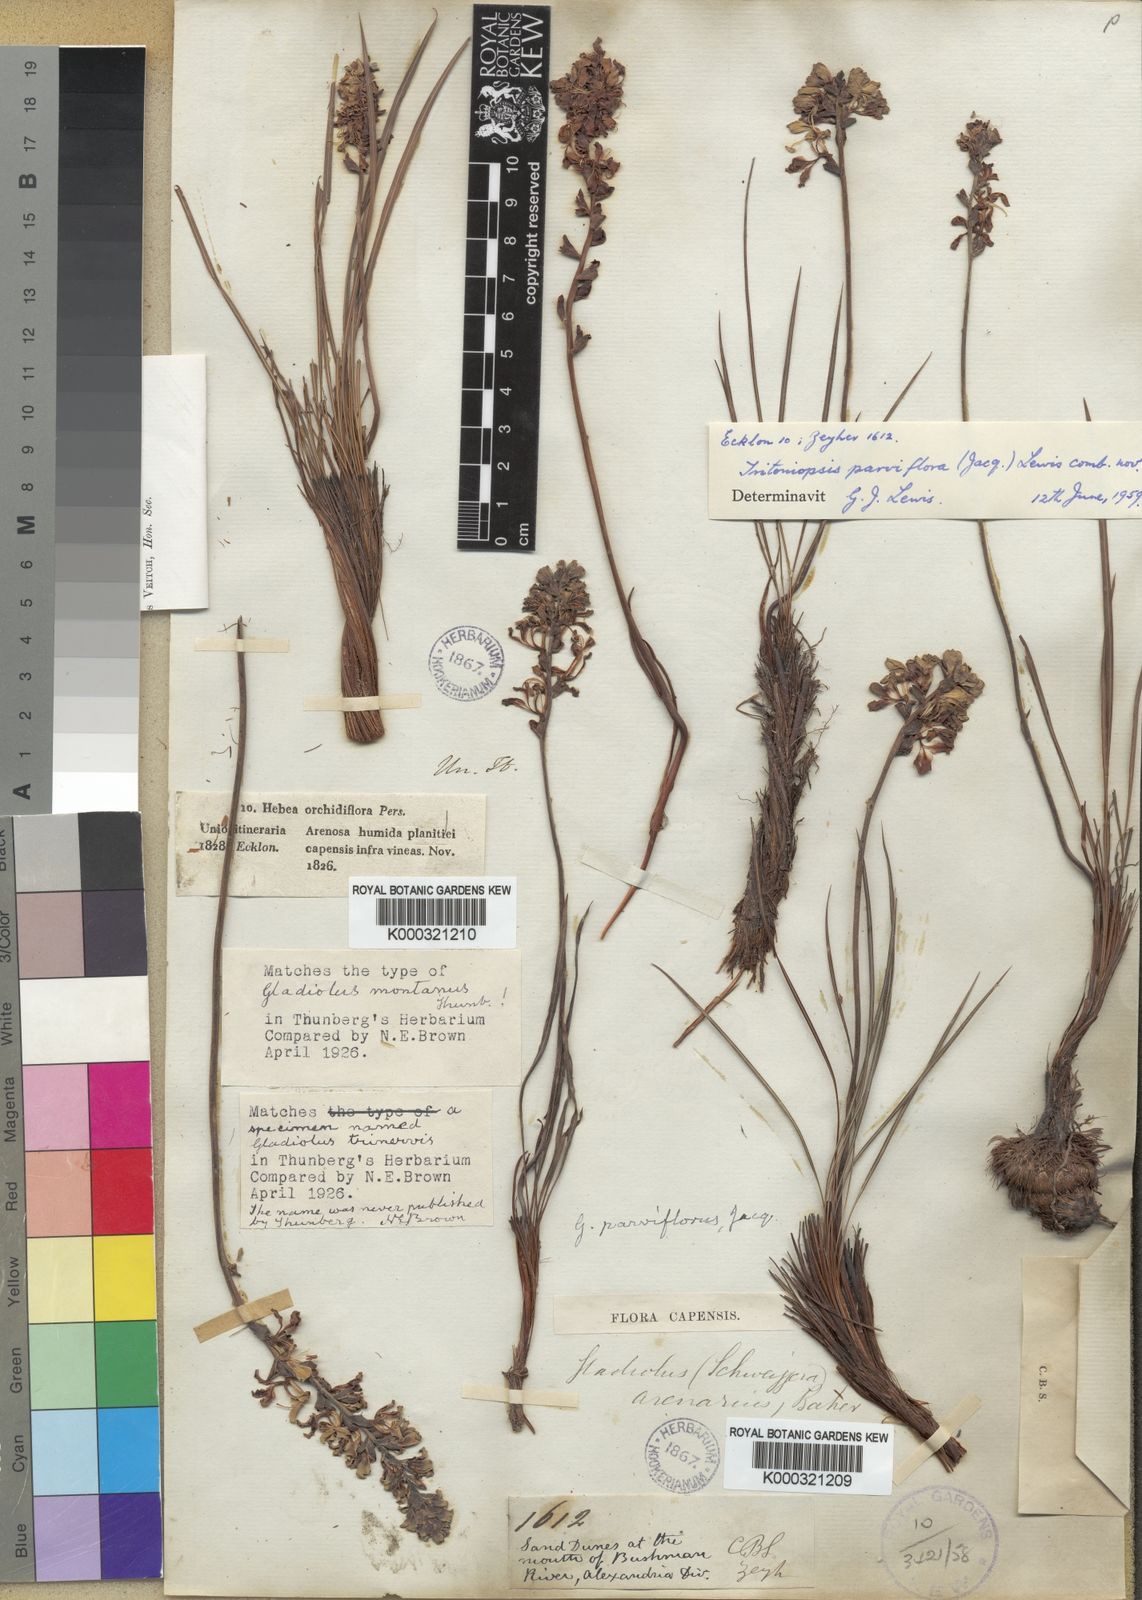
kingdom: Plantae
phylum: Tracheophyta
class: Liliopsida
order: Asparagales
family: Iridaceae
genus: Tritoniopsis
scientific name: Tritoniopsis parviflora
